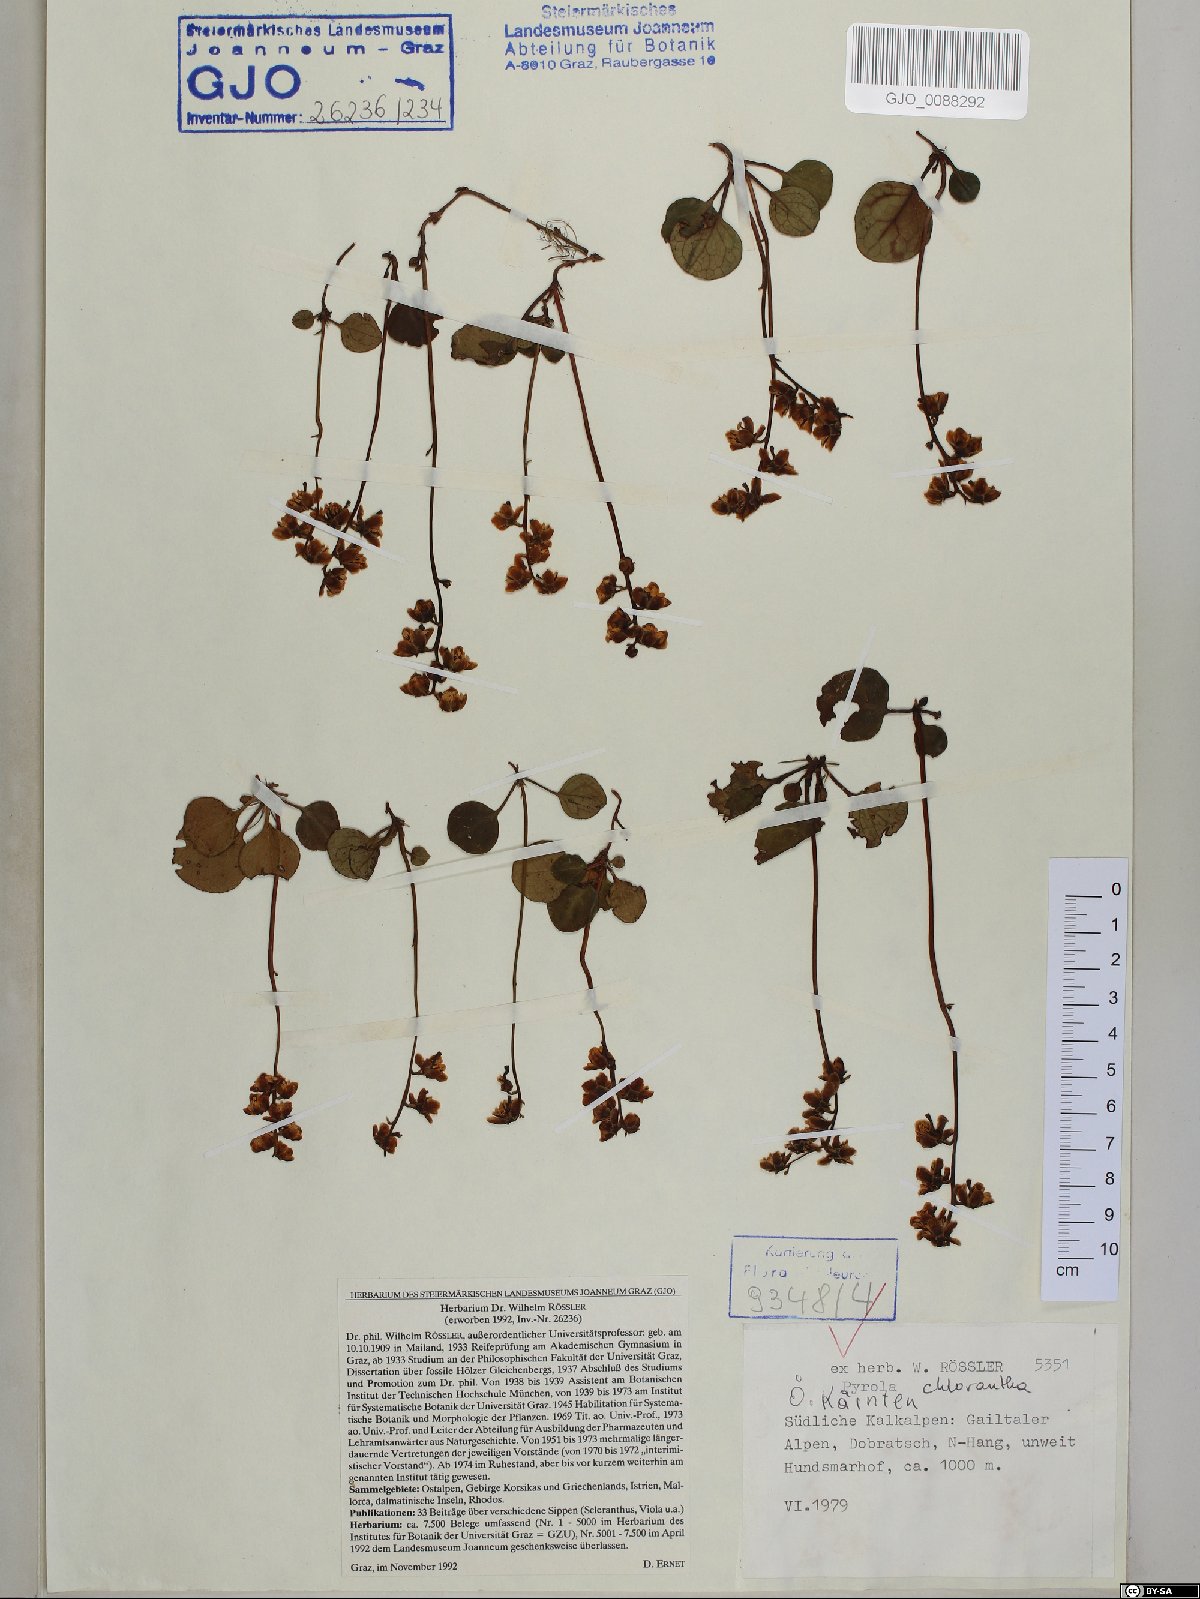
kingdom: Plantae
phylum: Tracheophyta
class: Magnoliopsida
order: Ericales
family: Ericaceae
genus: Pyrola
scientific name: Pyrola chlorantha
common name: Green wintergreen
